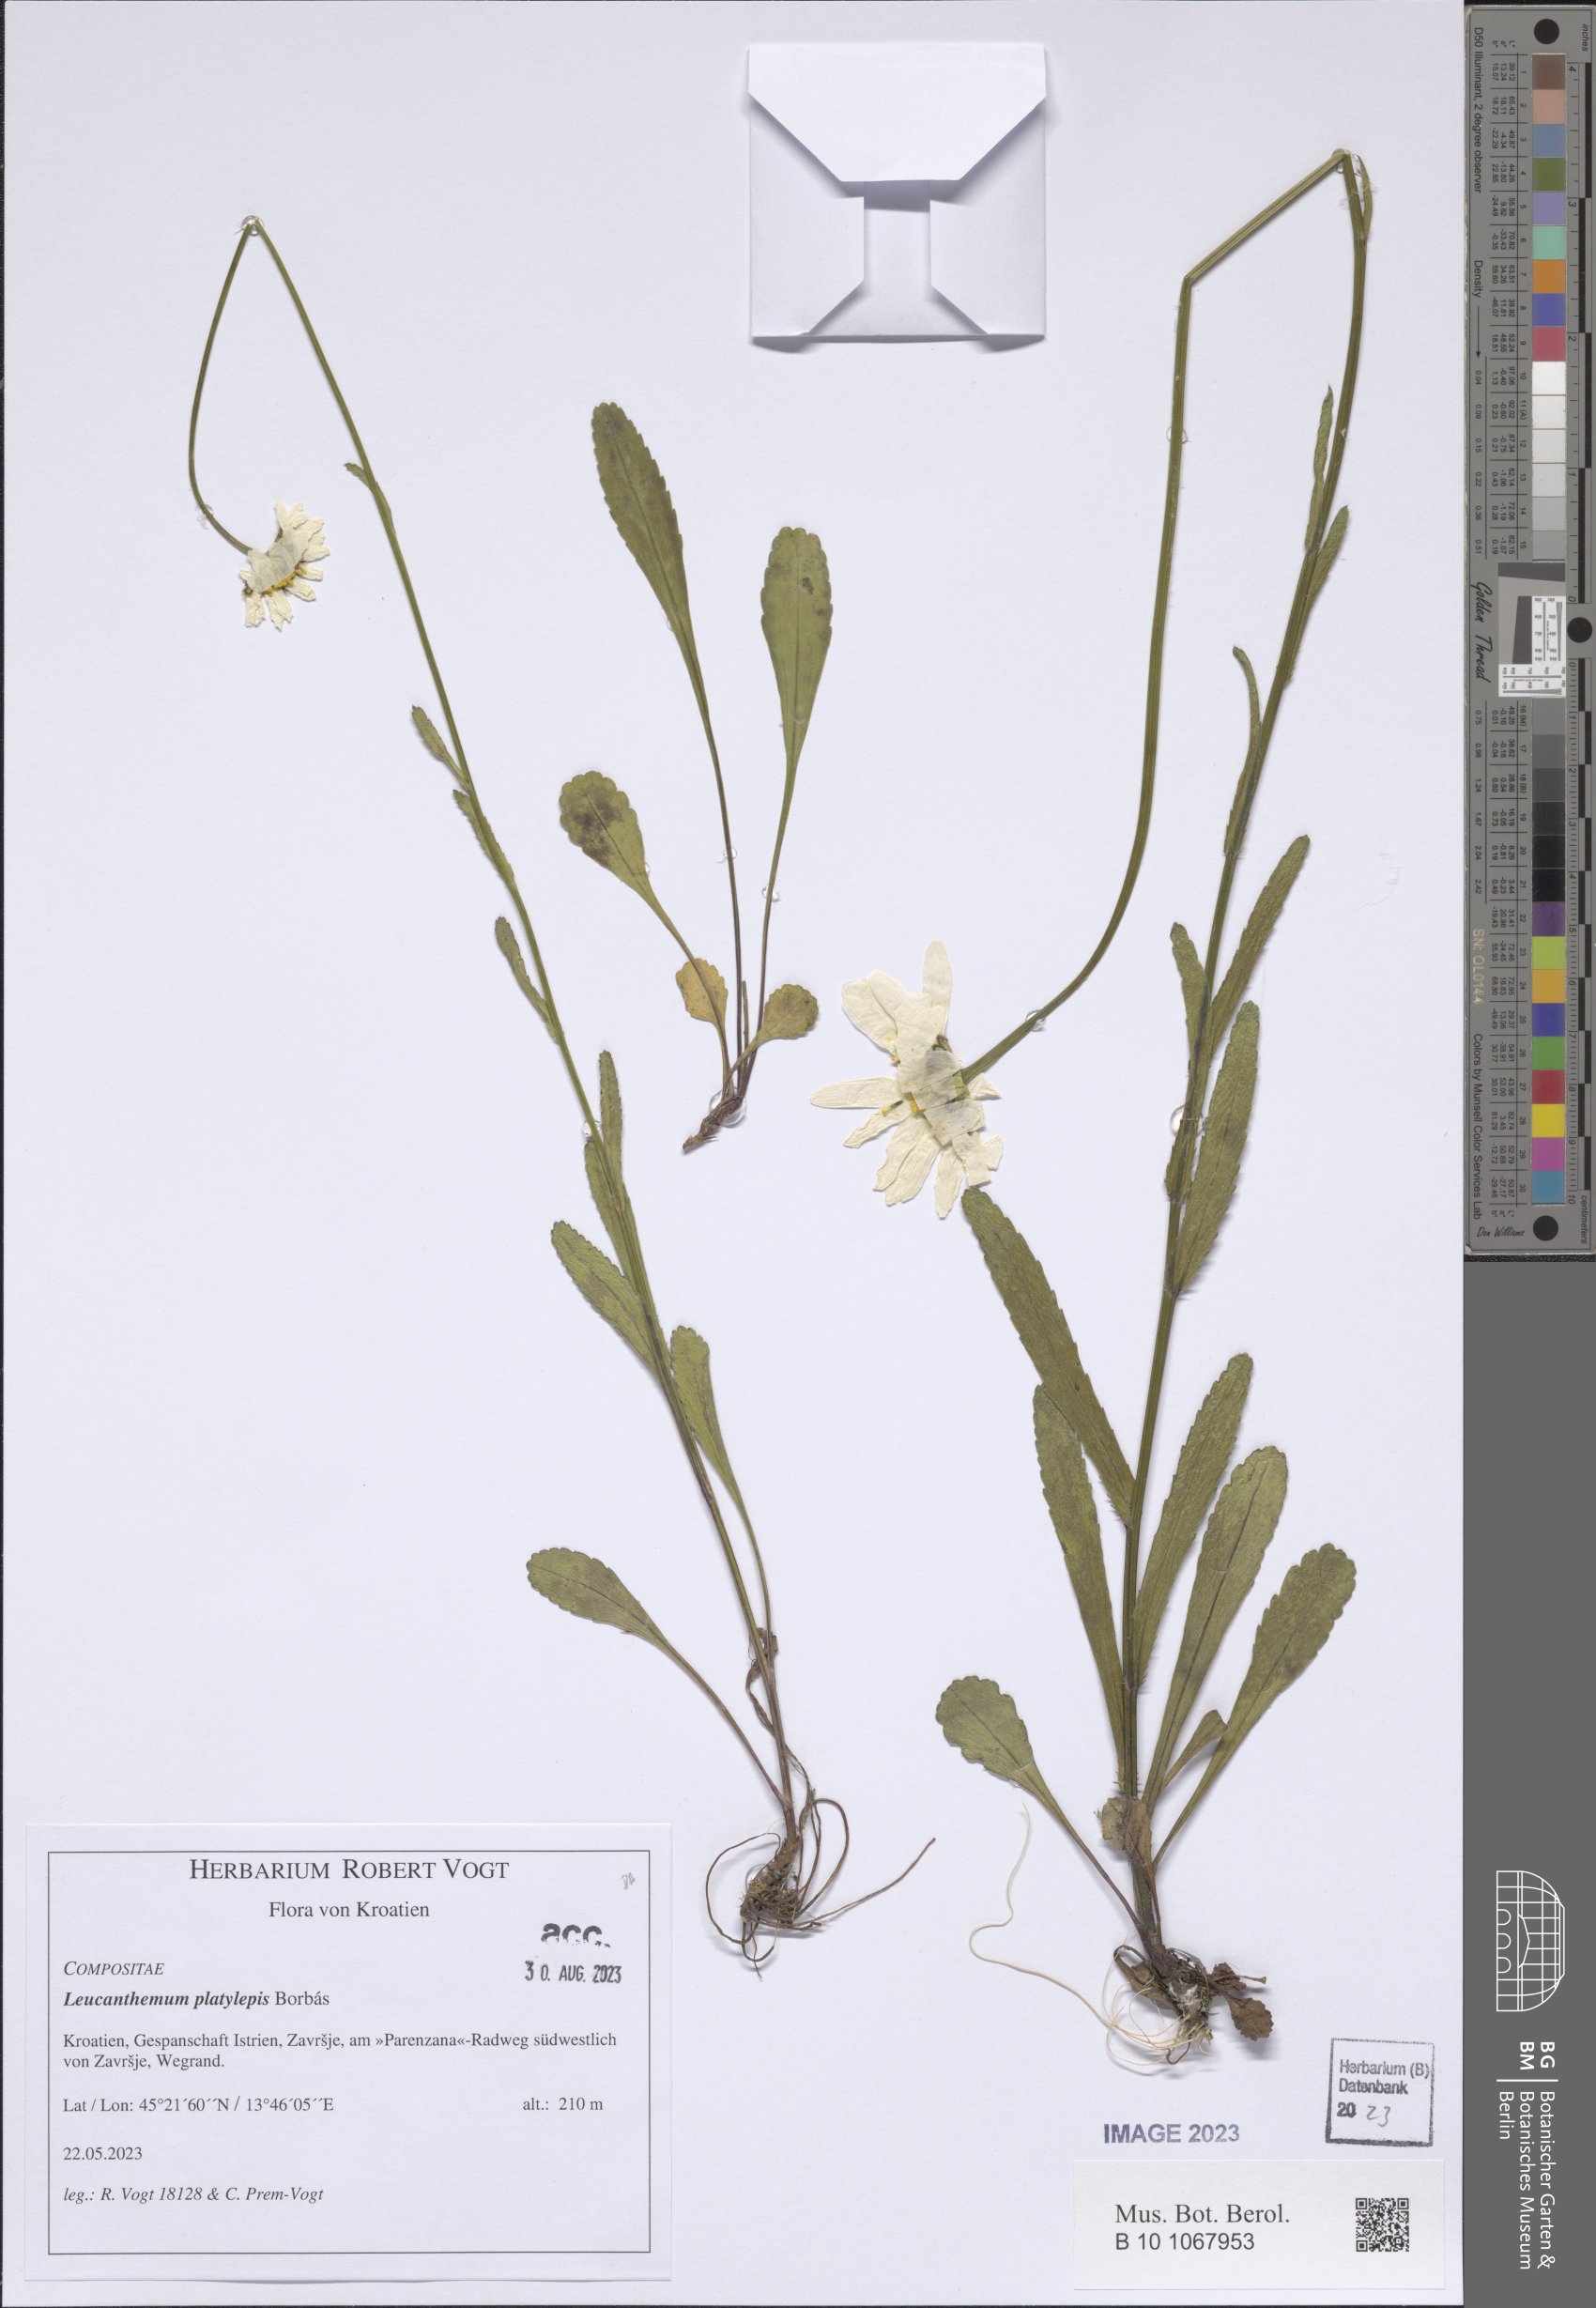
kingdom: Plantae
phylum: Tracheophyta
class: Magnoliopsida
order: Asterales
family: Asteraceae
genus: Leucanthemum
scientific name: Leucanthemum platylepis
